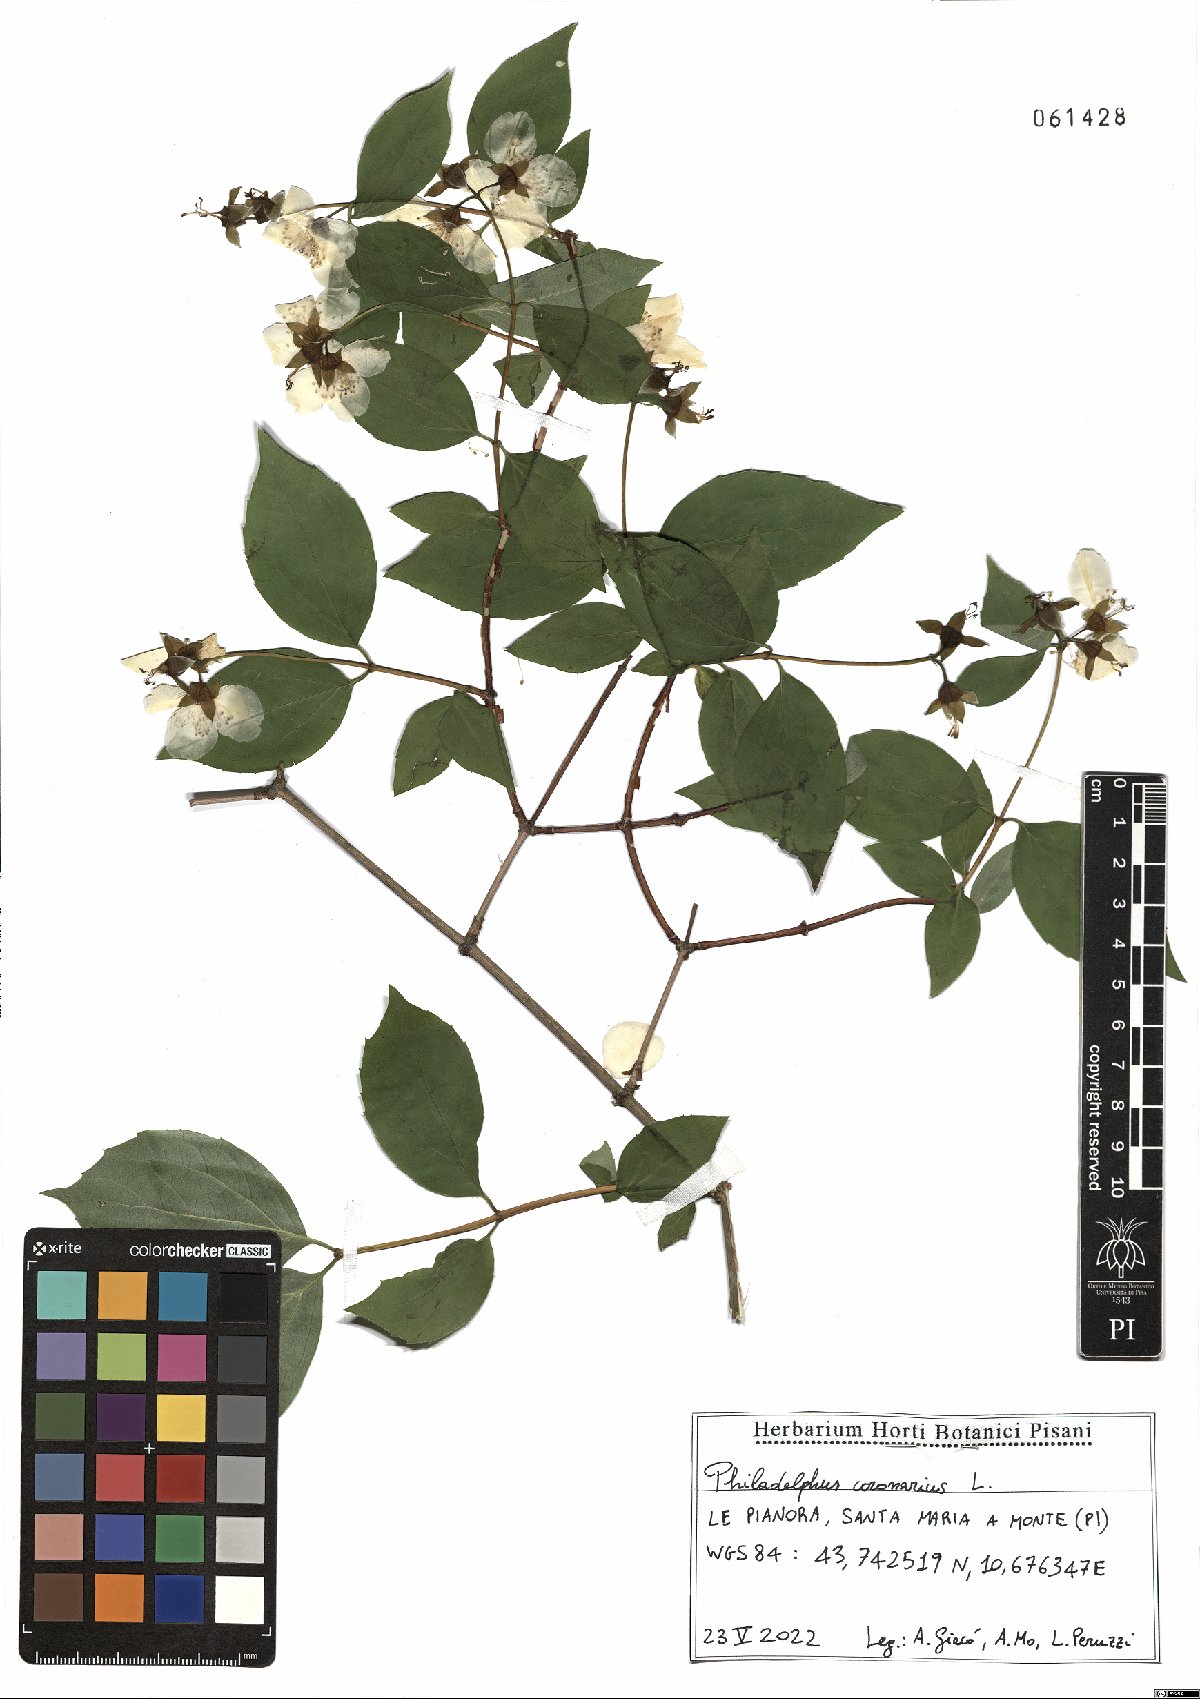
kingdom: Plantae
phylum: Tracheophyta
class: Magnoliopsida
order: Cornales
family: Hydrangeaceae
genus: Philadelphus
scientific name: Philadelphus coronarius
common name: Mock orange
